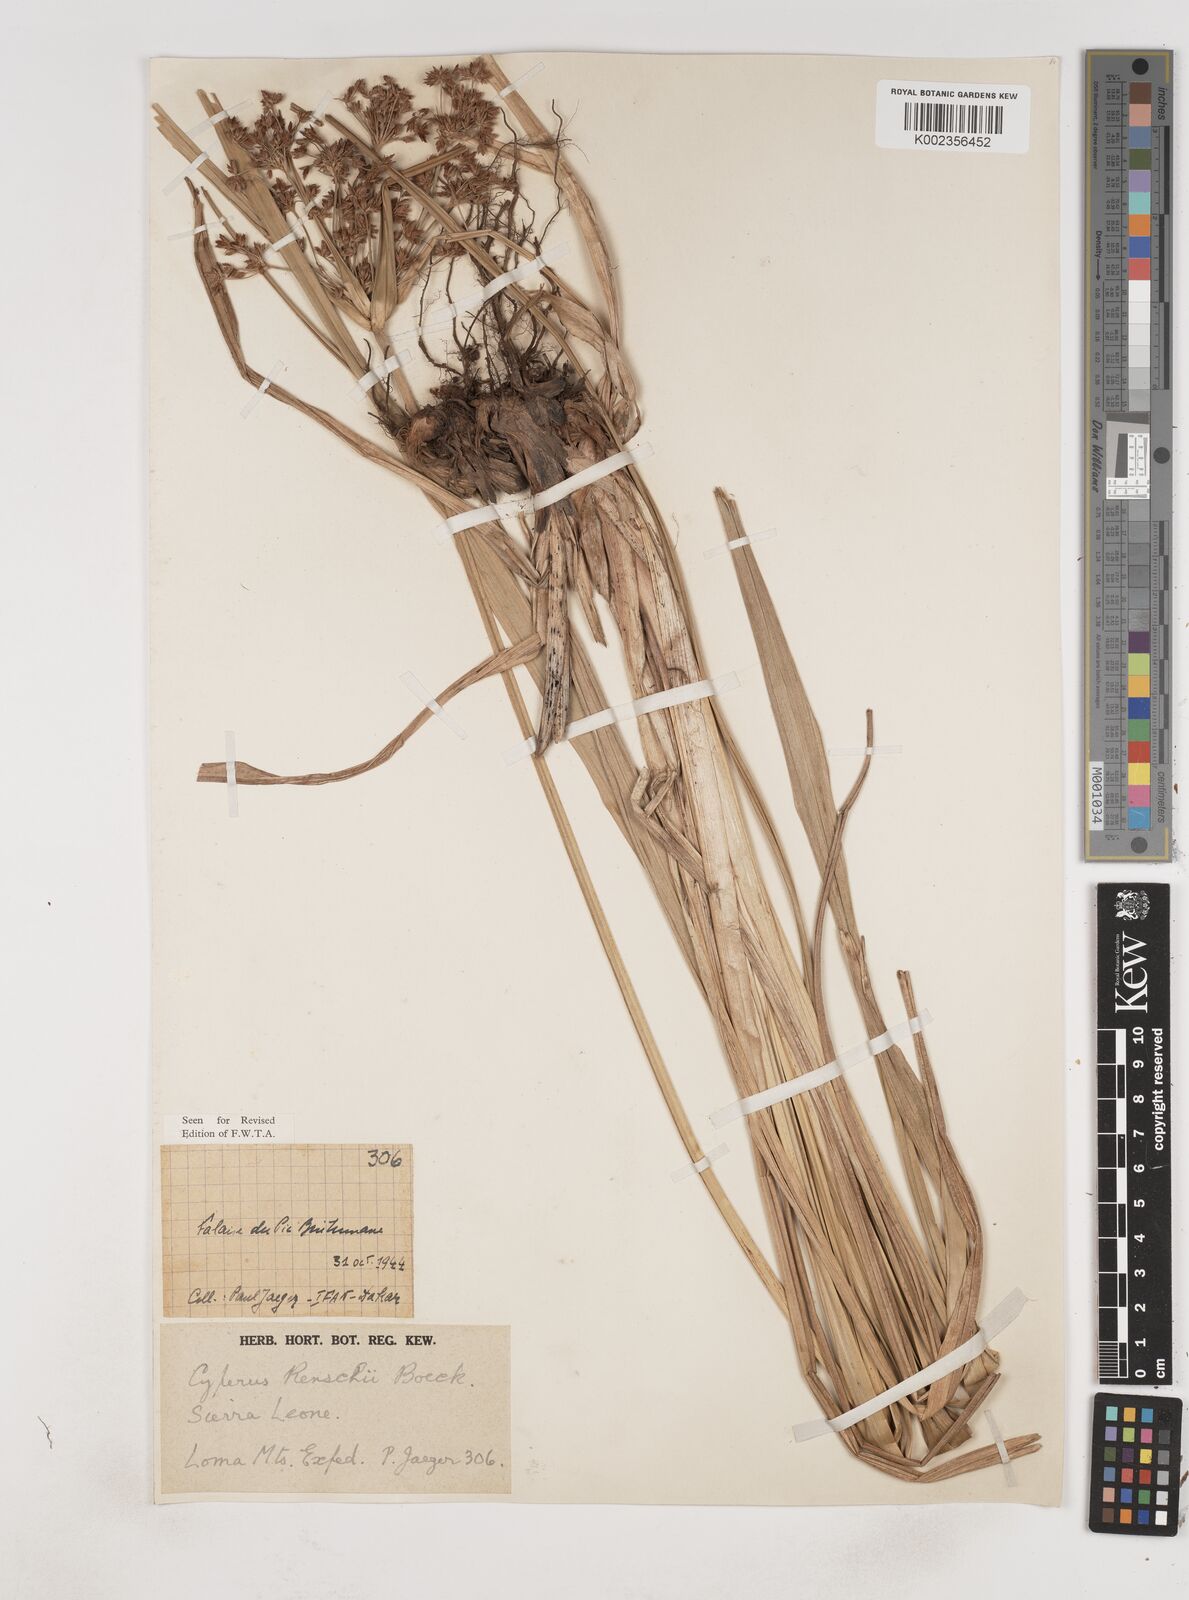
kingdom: Plantae
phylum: Tracheophyta
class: Liliopsida
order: Poales
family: Cyperaceae
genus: Cyperus
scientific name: Cyperus baronii
